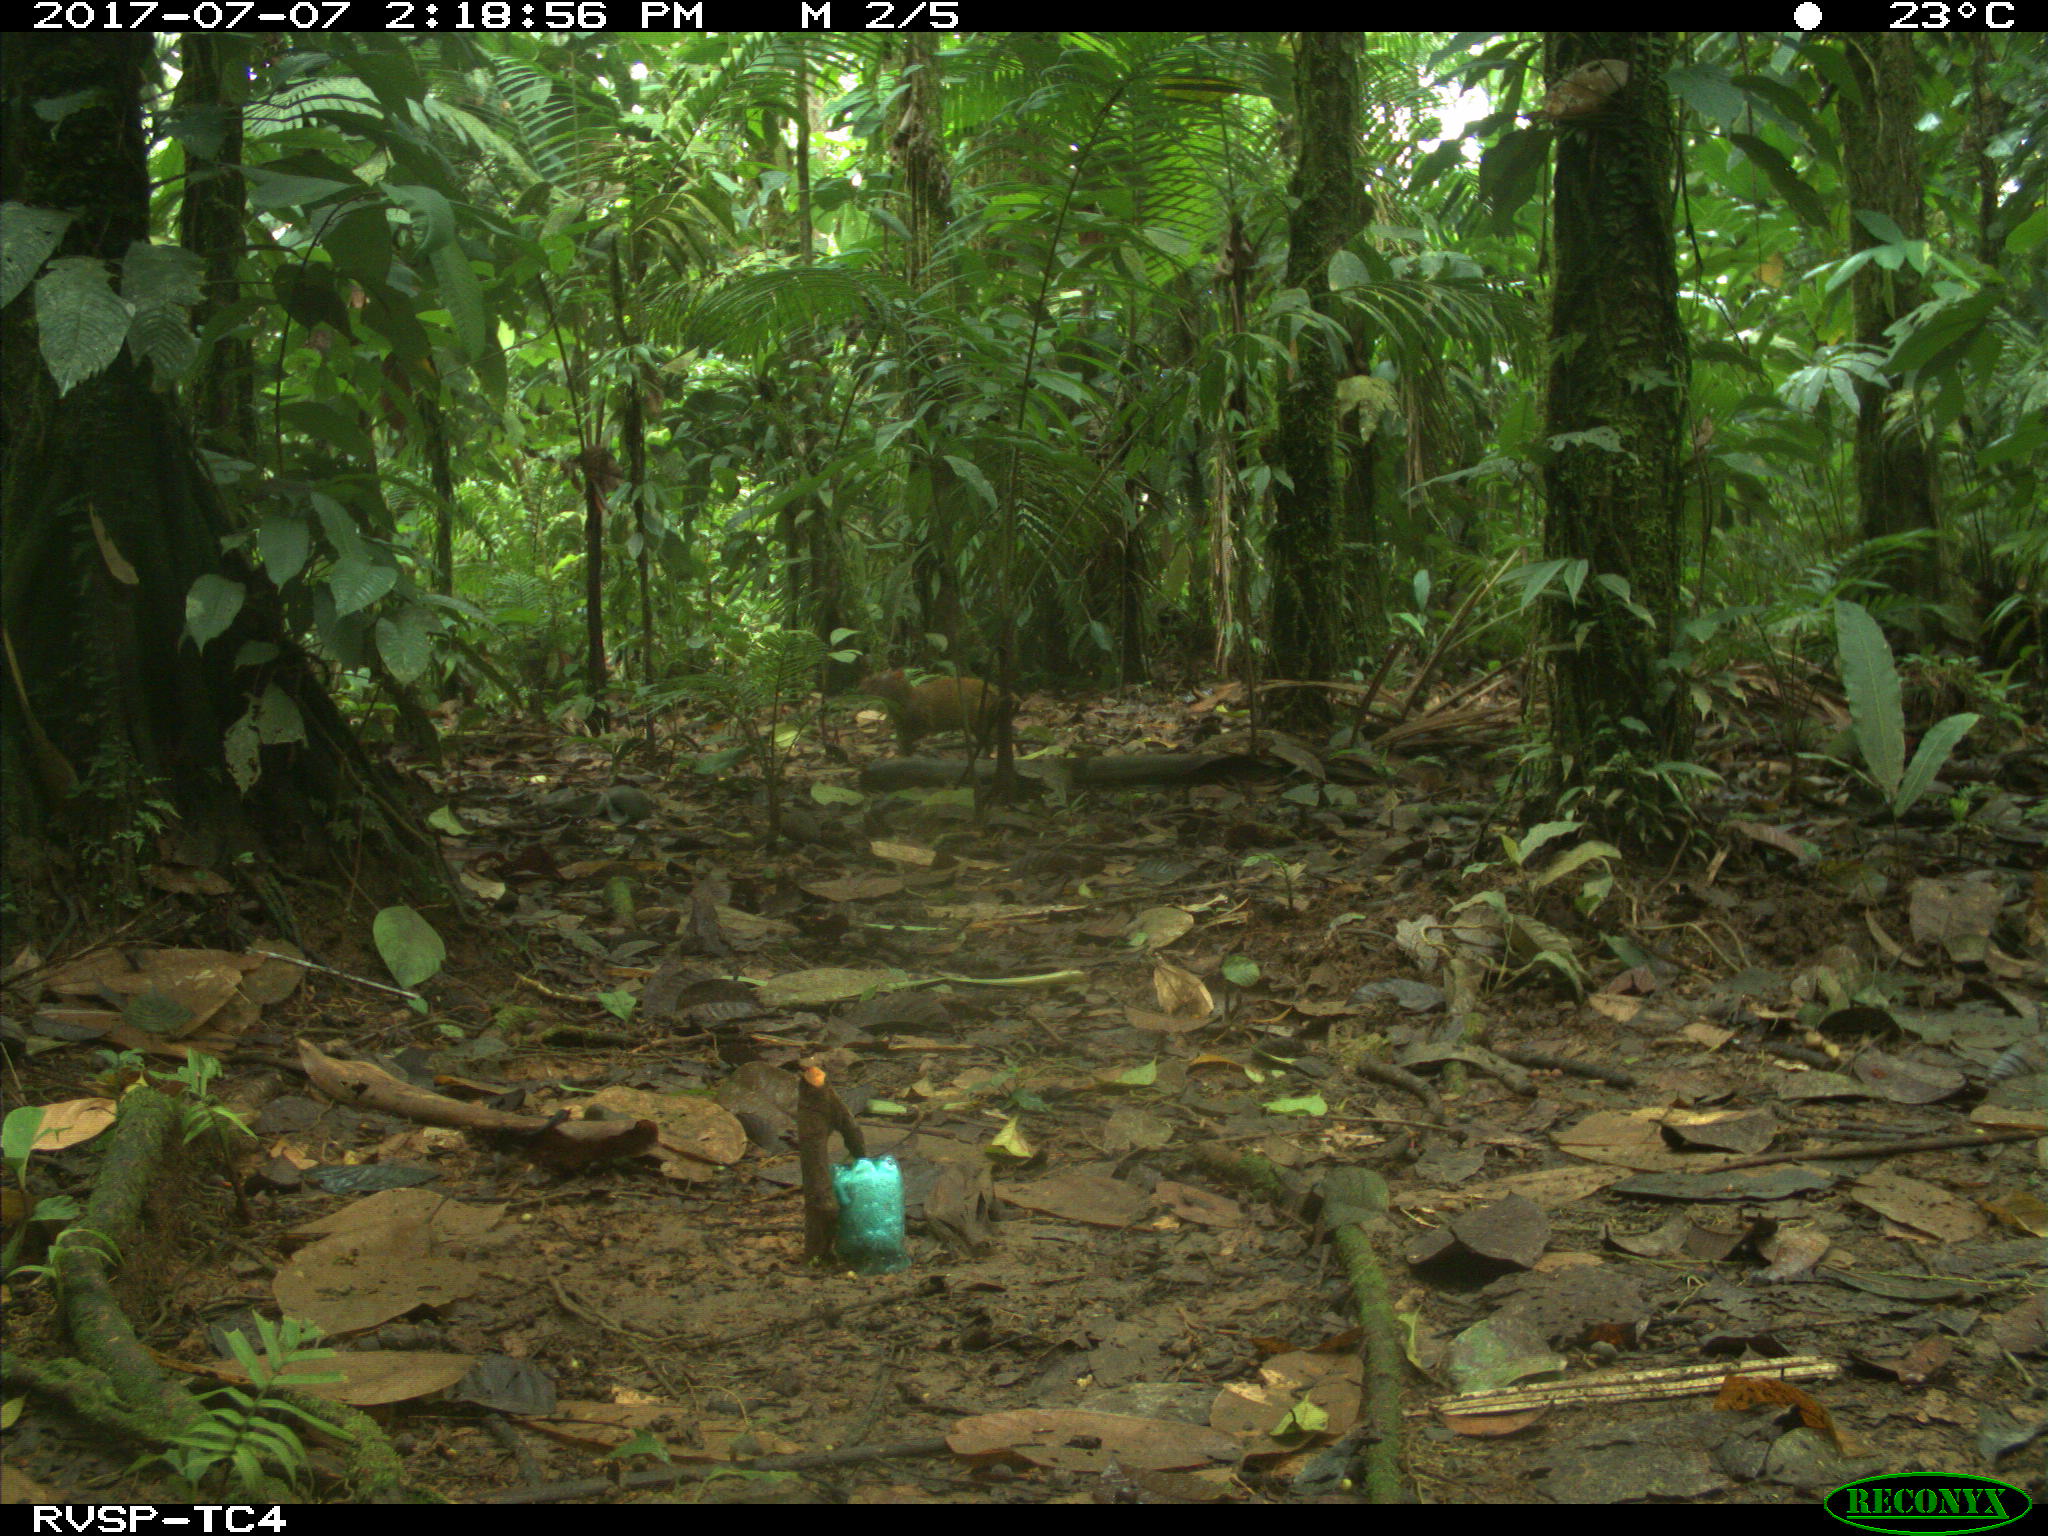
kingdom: Animalia
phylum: Chordata
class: Mammalia
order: Rodentia
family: Dasyproctidae
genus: Dasyprocta
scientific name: Dasyprocta punctata
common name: Central american agouti
